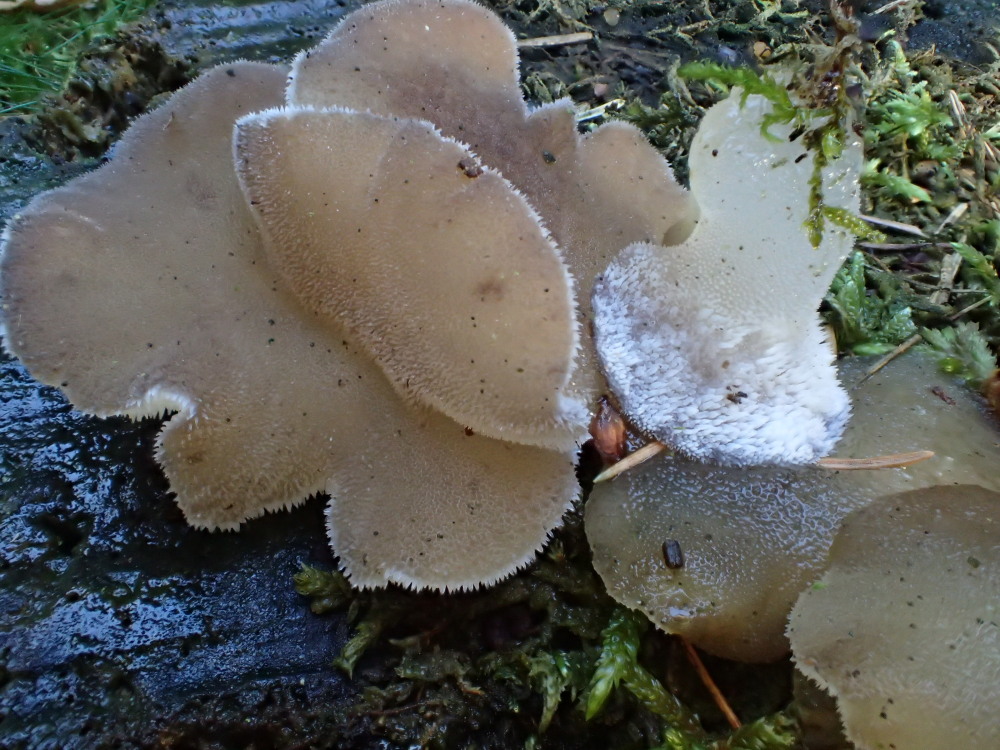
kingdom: Fungi
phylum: Basidiomycota
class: Agaricomycetes
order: Auriculariales
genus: Pseudohydnum
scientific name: Pseudohydnum gelatinosum
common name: bævretand
